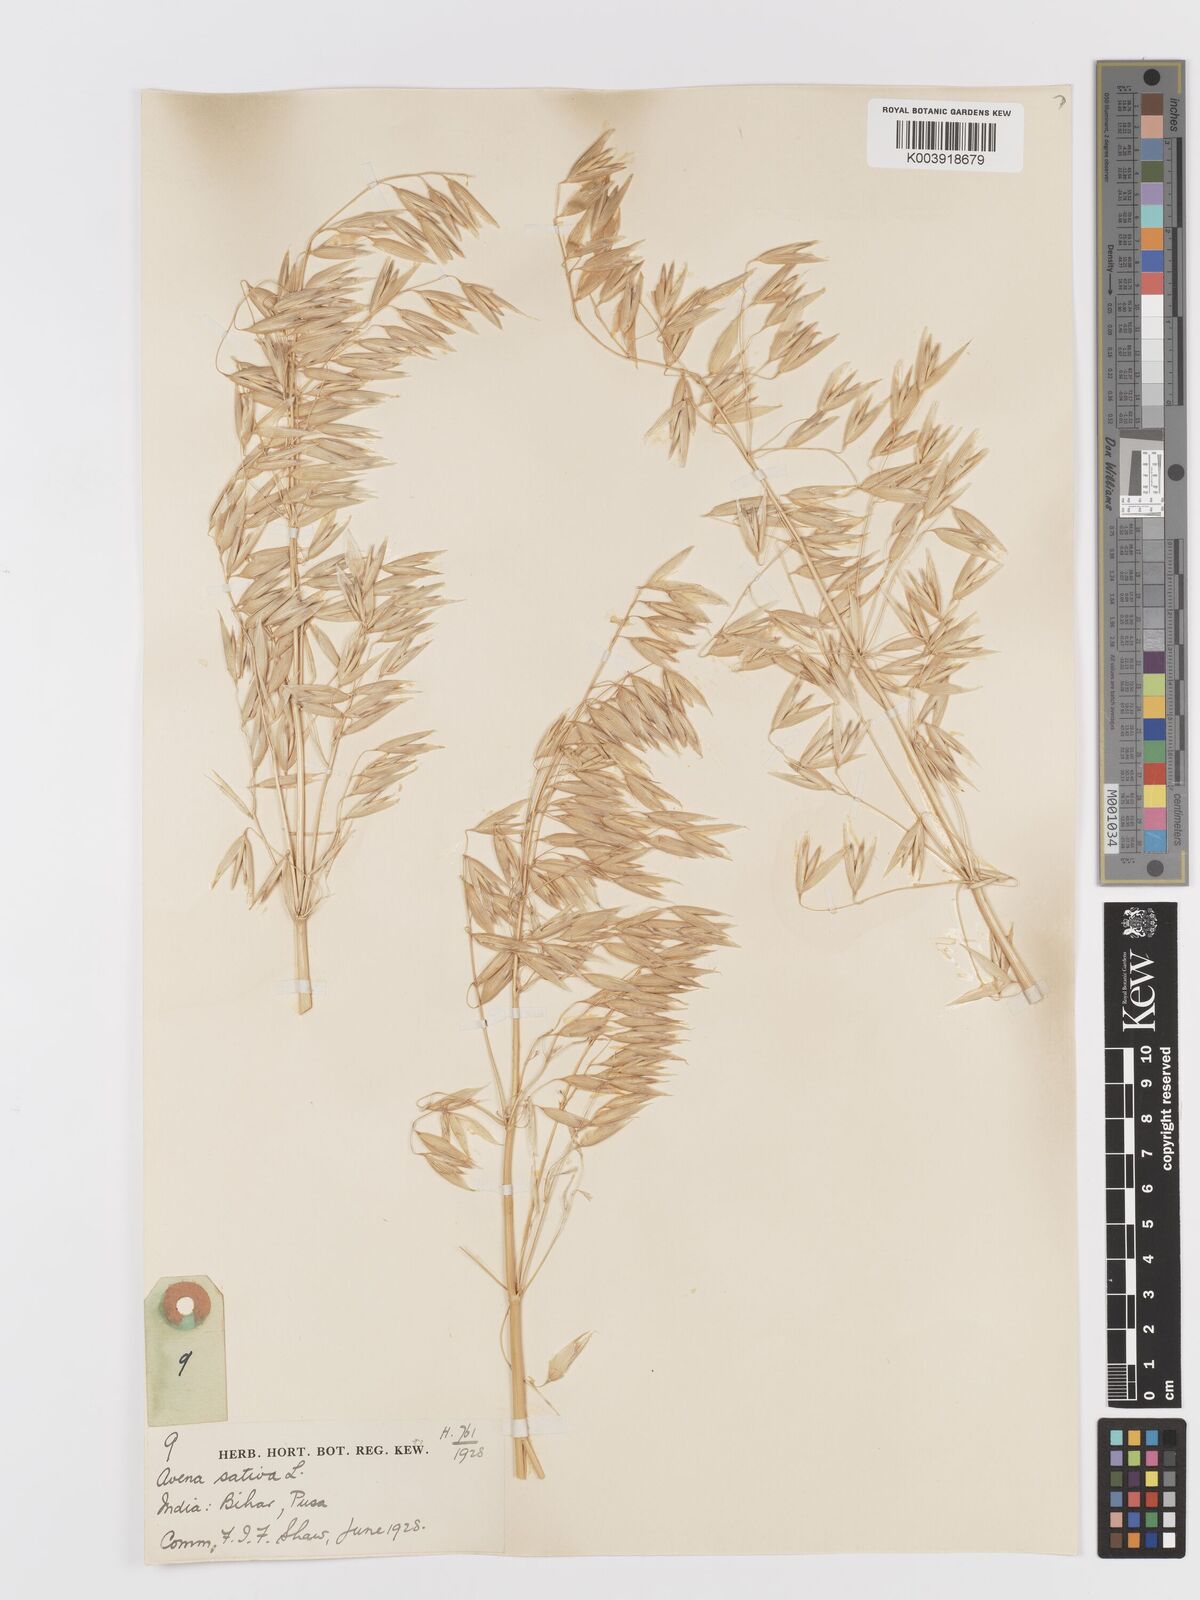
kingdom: Plantae
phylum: Tracheophyta
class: Liliopsida
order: Poales
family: Poaceae
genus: Avena
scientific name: Avena sativa
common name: Oat
